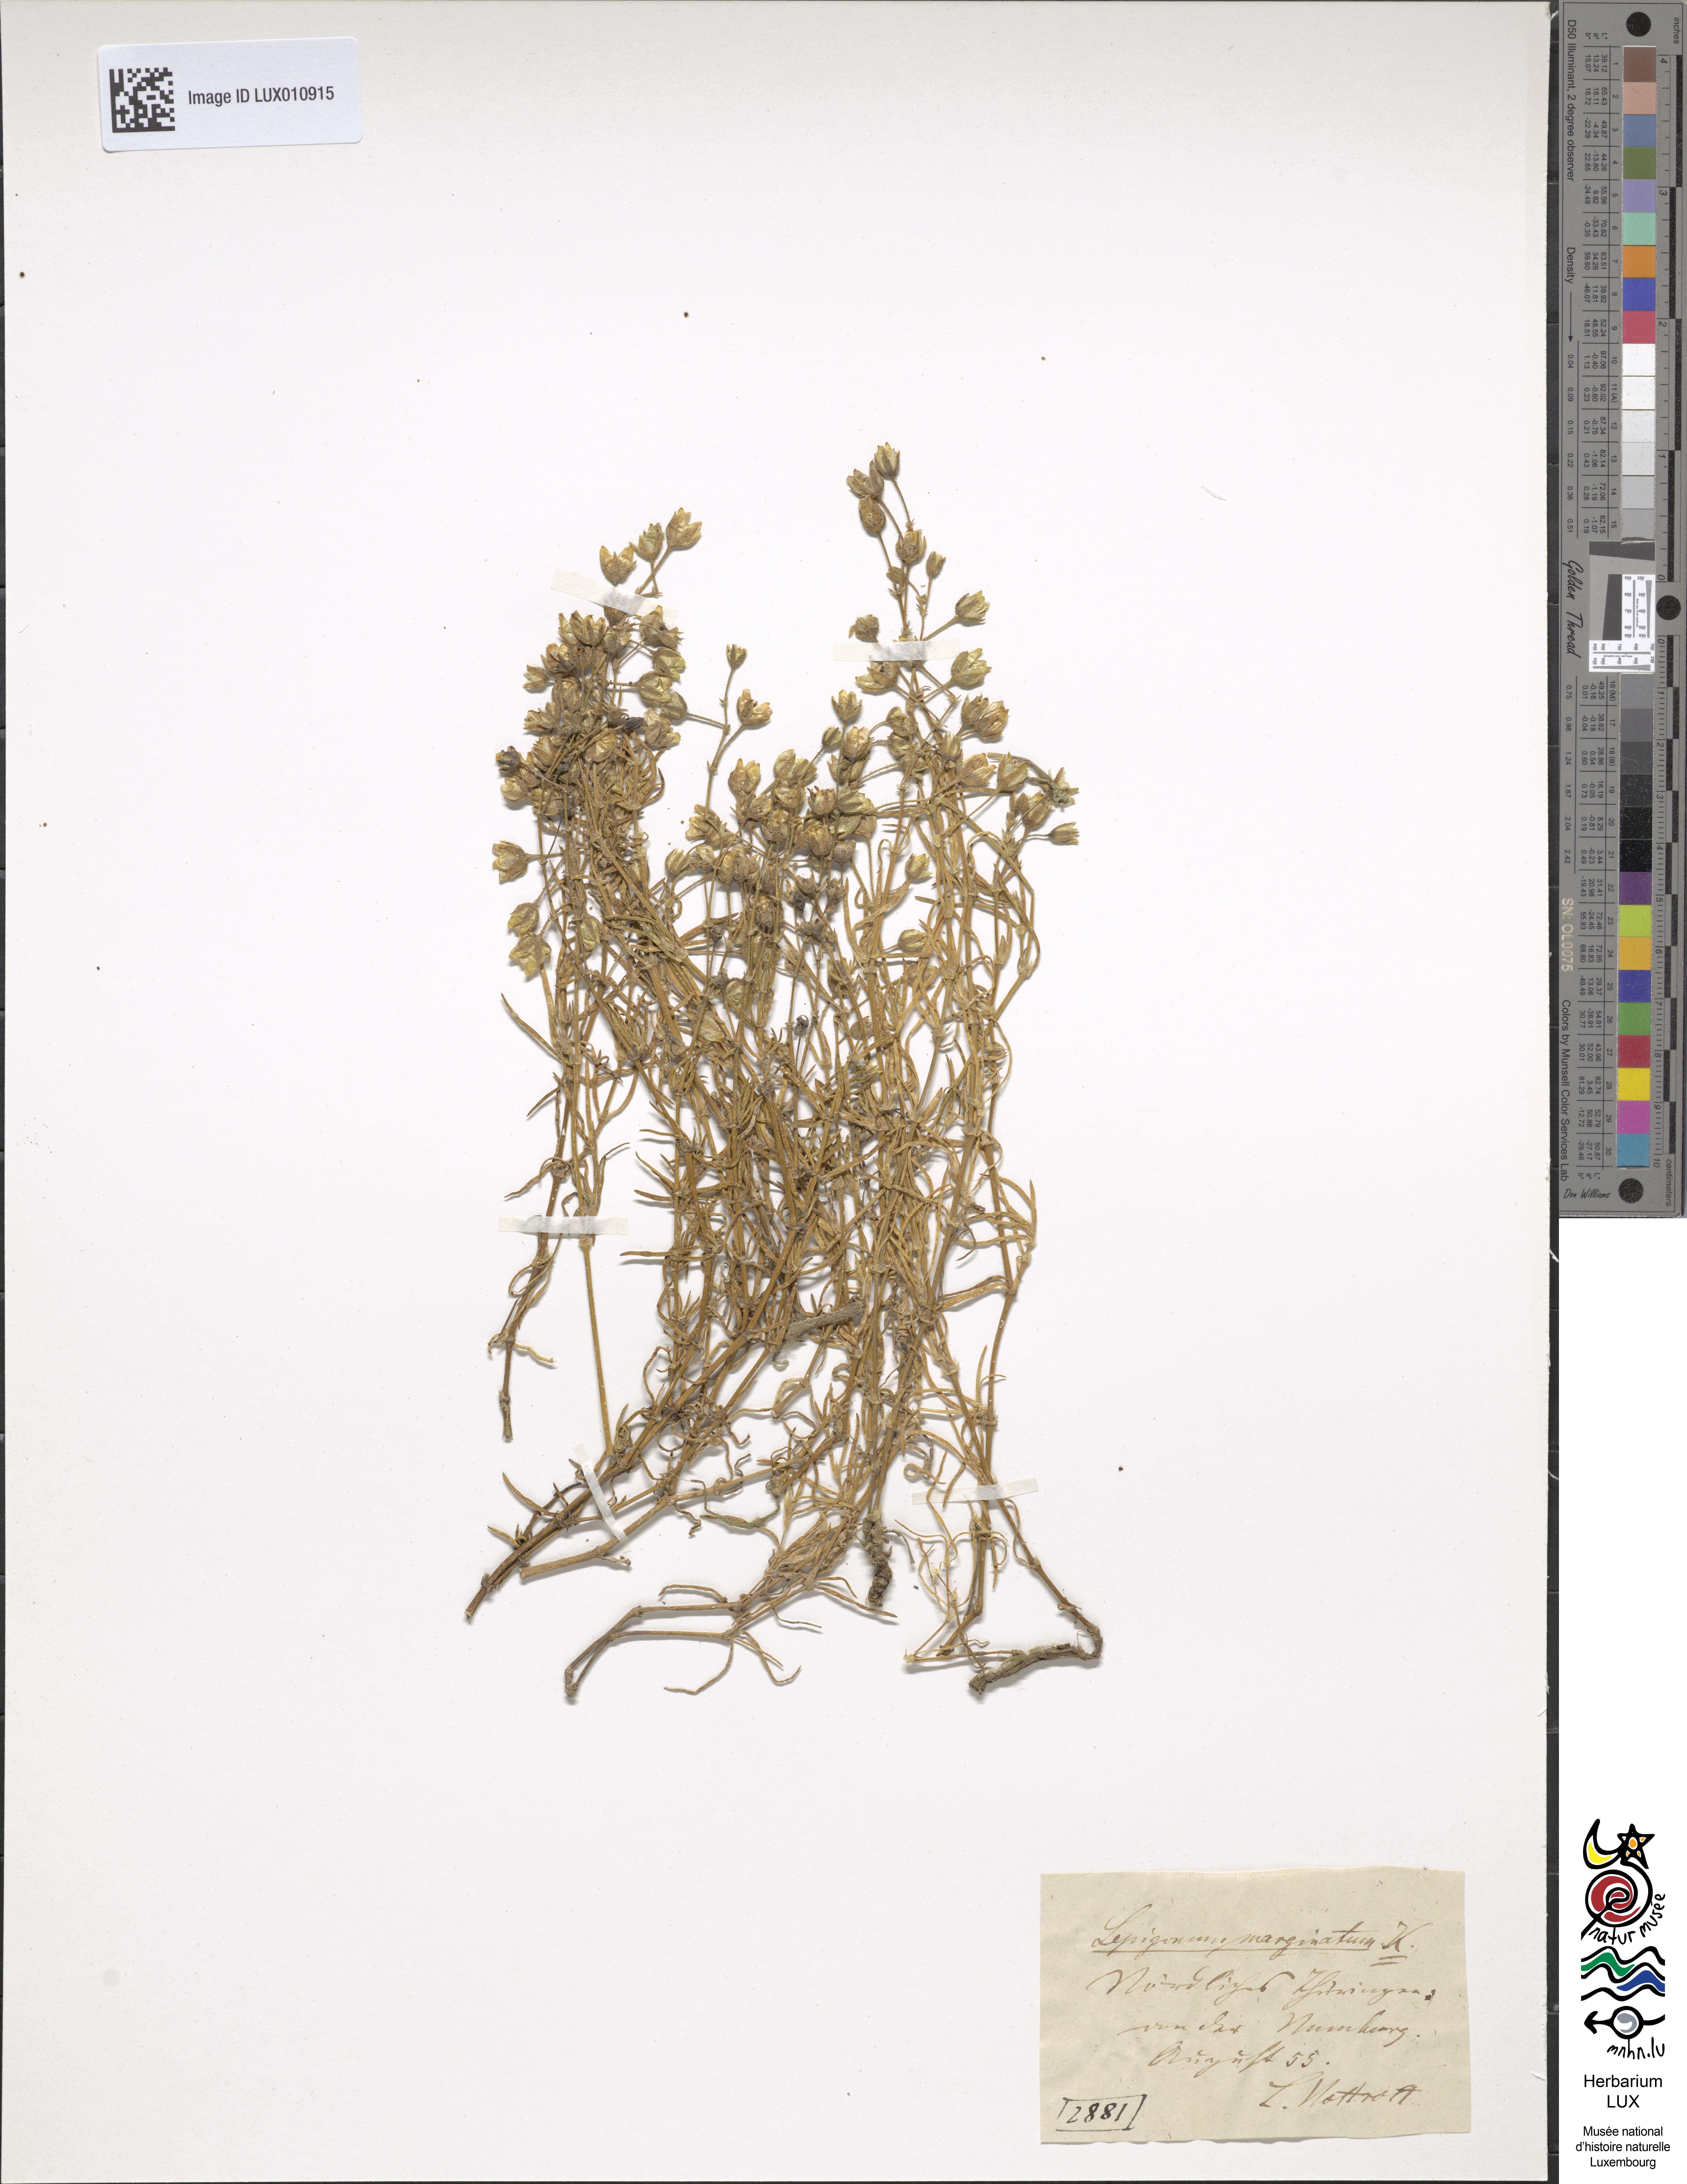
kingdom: Plantae
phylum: Tracheophyta
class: Magnoliopsida
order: Caryophyllales
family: Caryophyllaceae
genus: Spergularia
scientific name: Spergularia media
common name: Greater sea-spurrey
